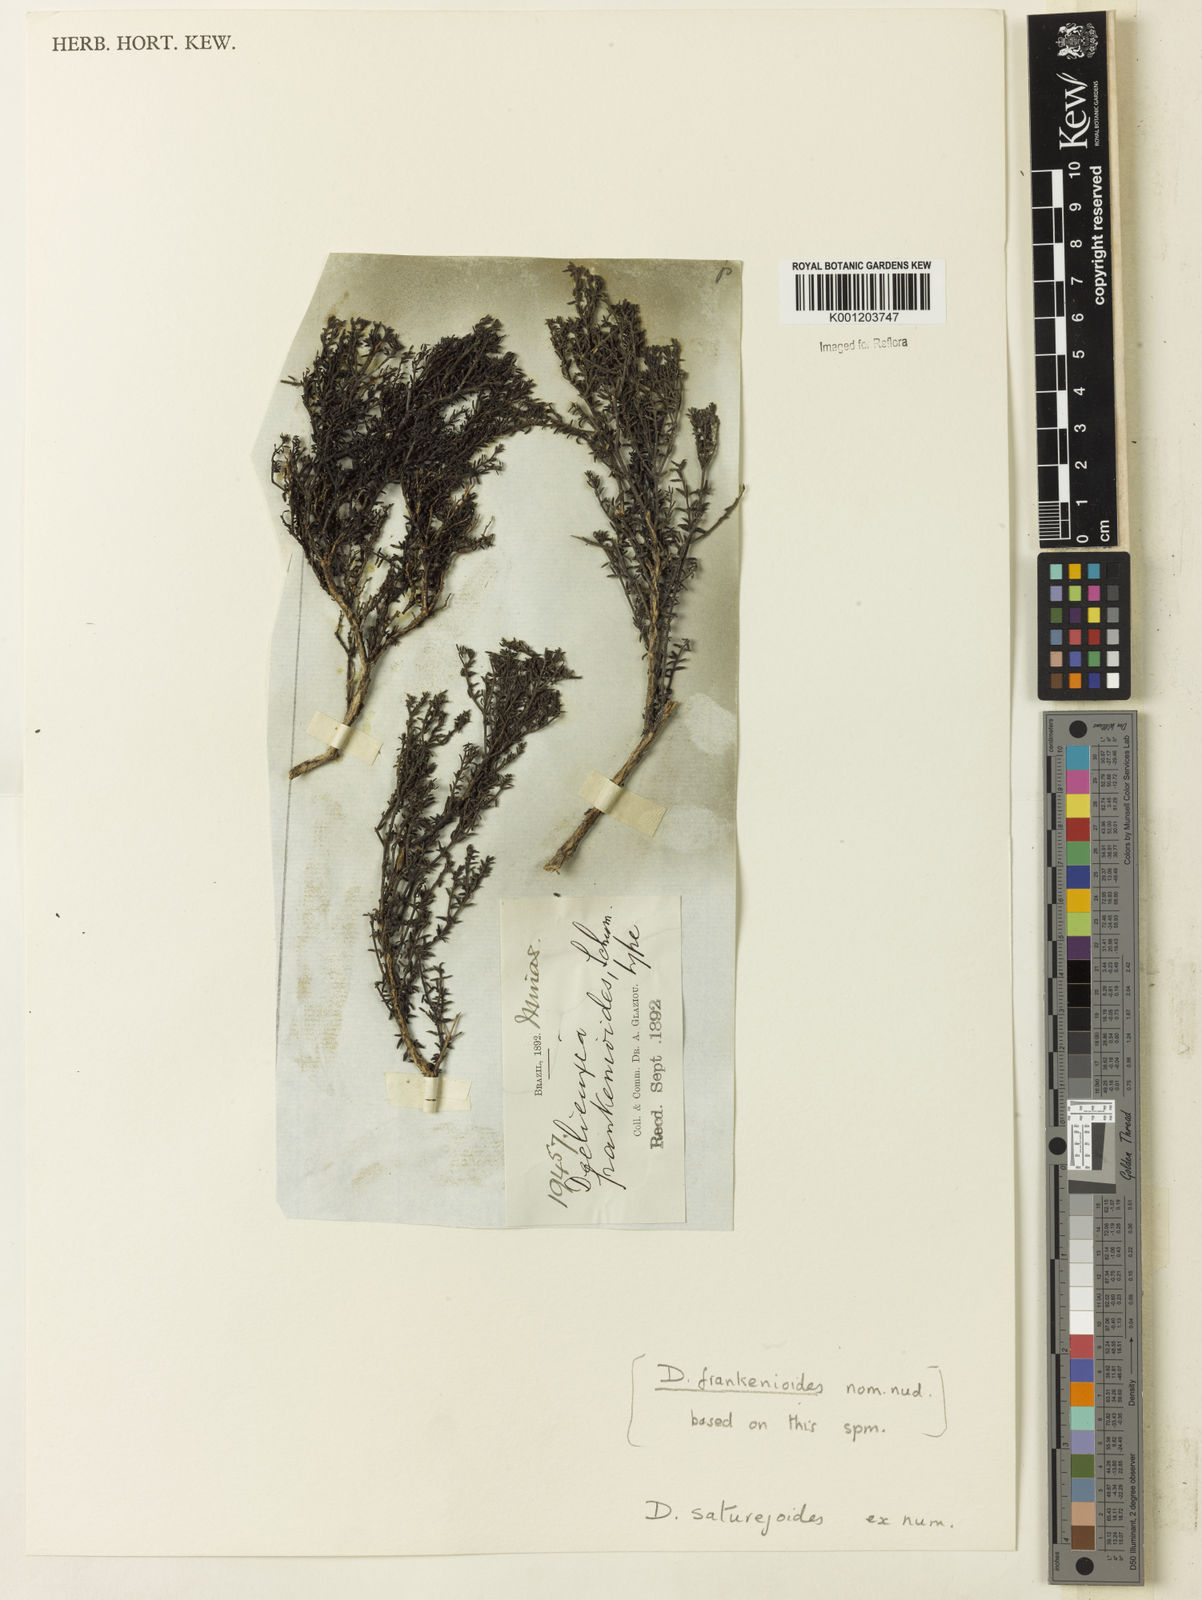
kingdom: Plantae
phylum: Tracheophyta
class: Magnoliopsida
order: Gentianales
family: Rubiaceae
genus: Declieuxia
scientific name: Declieuxia
